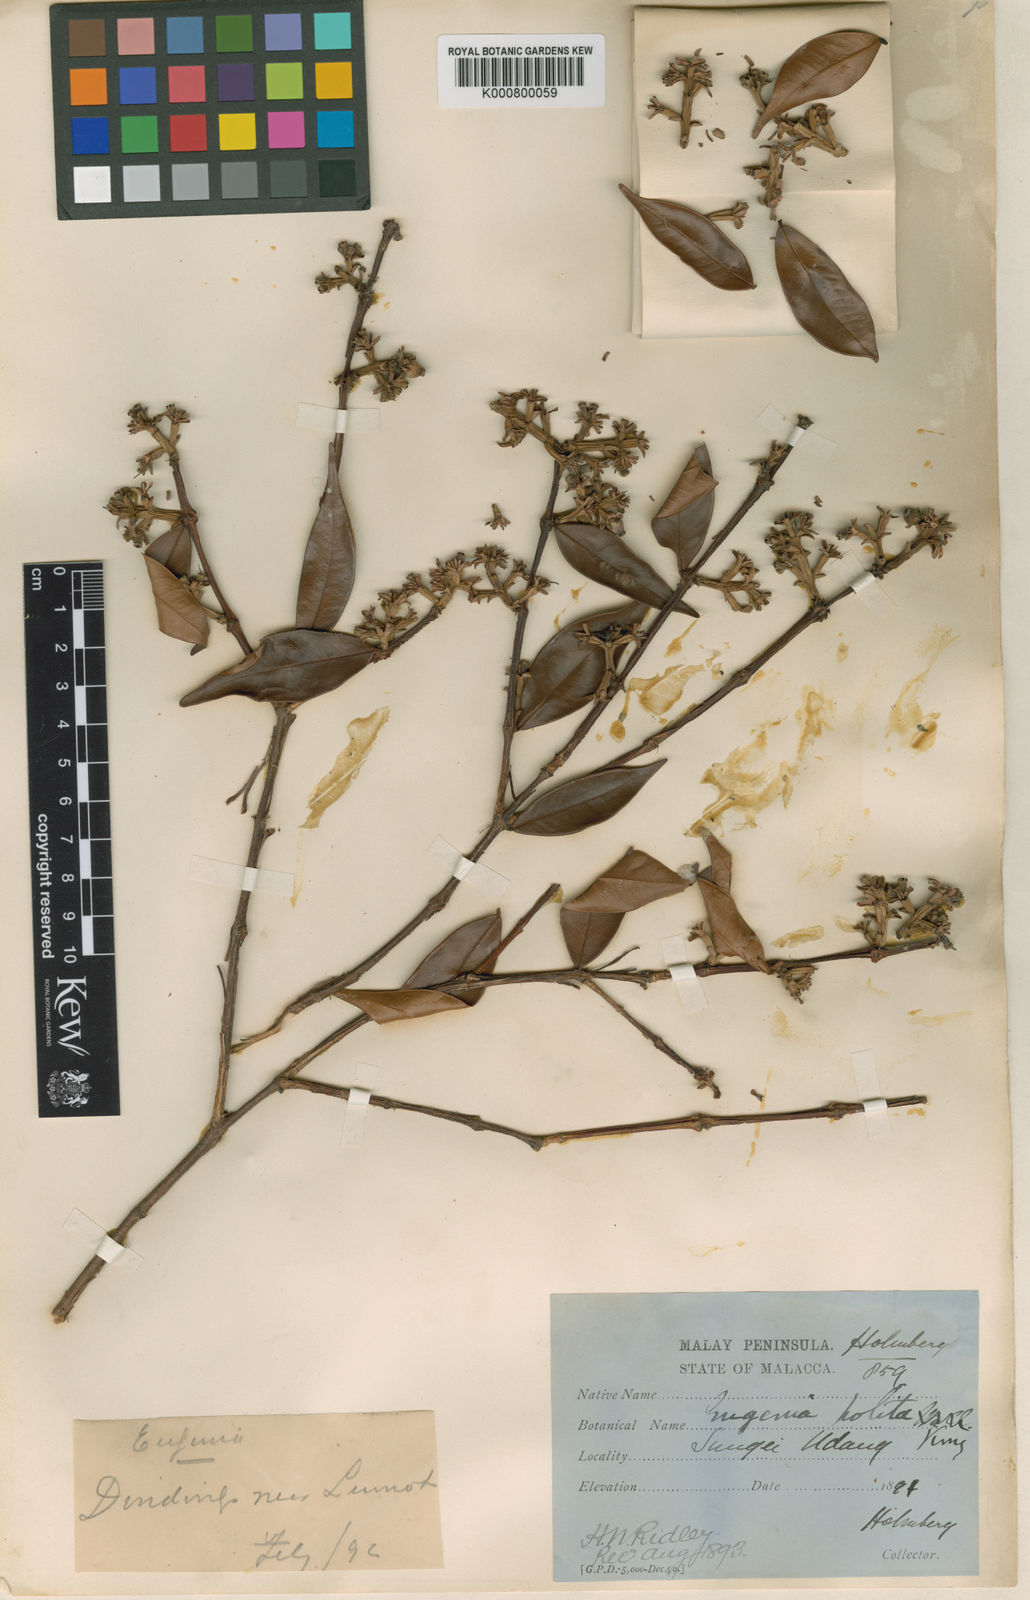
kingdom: Plantae
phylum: Tracheophyta
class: Magnoliopsida
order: Myrtales
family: Myrtaceae
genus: Syzygium
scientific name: Syzygium politum
